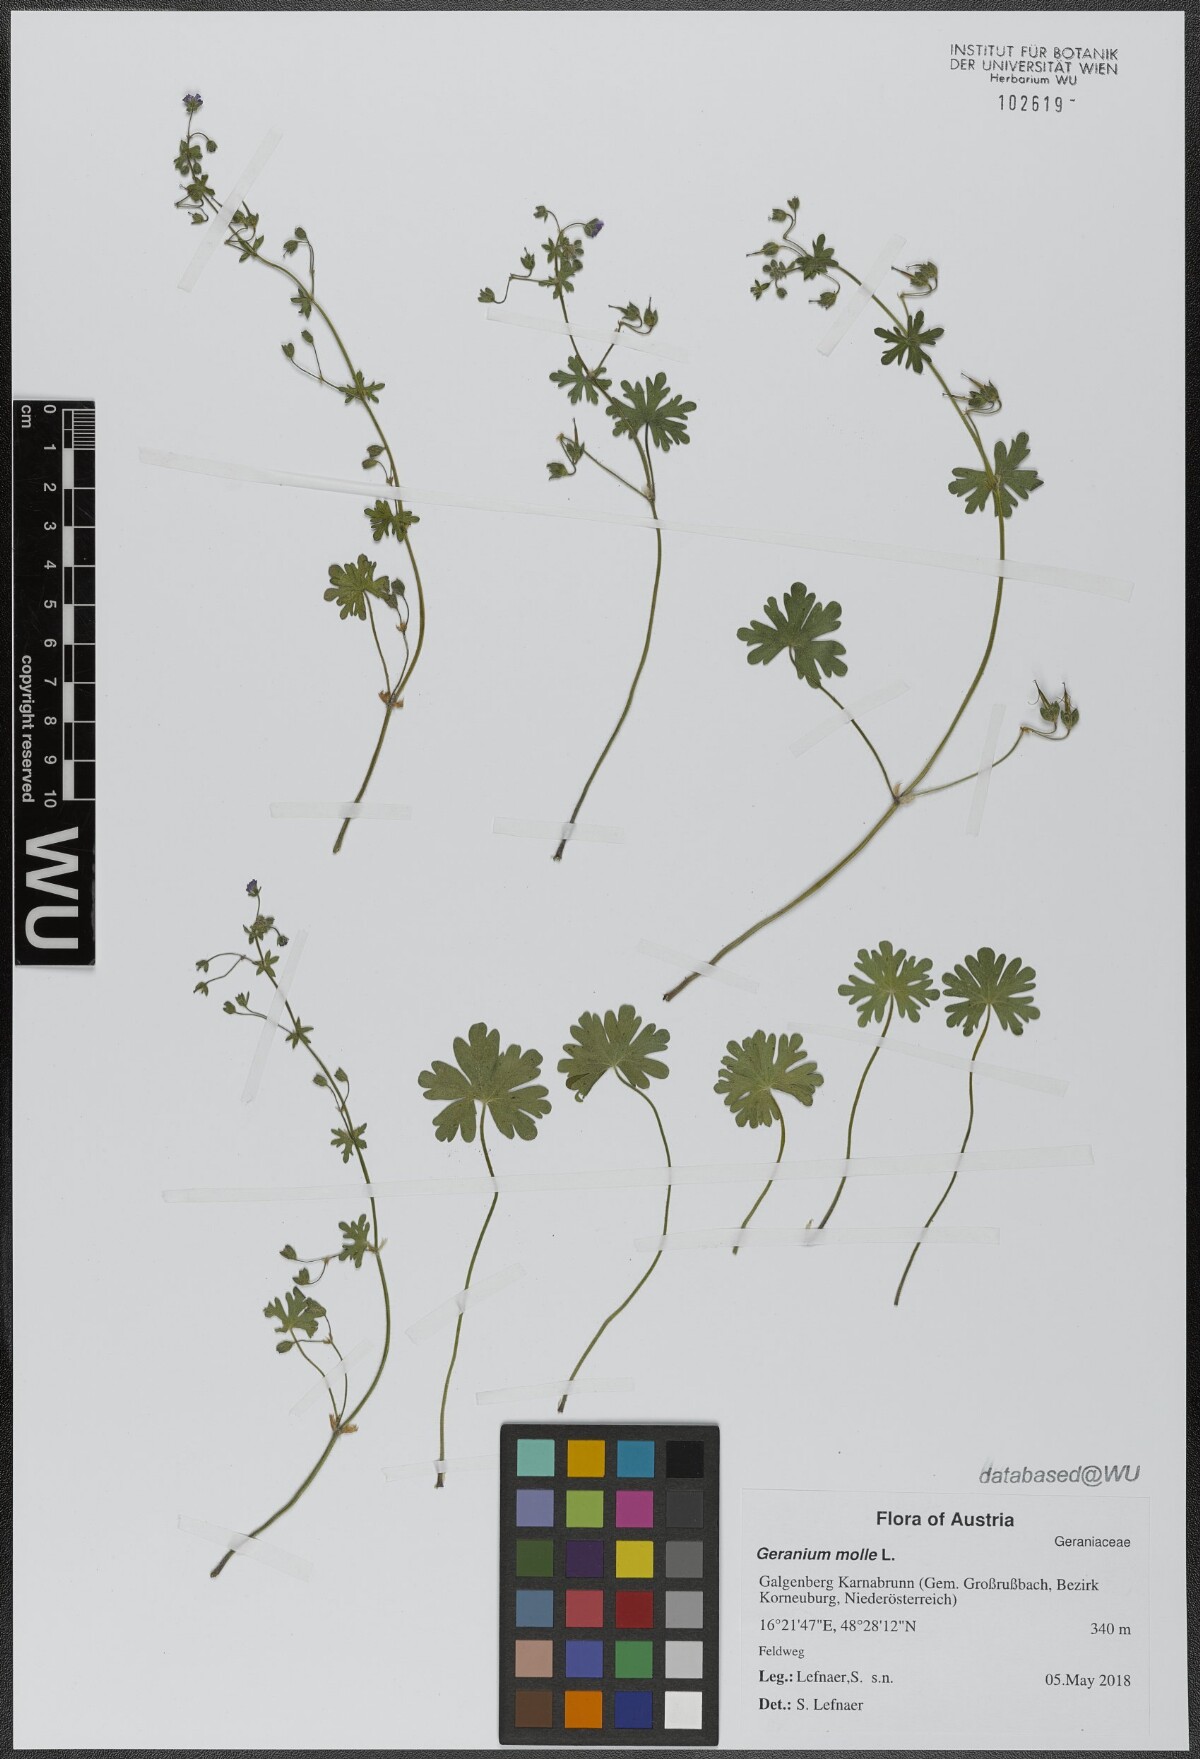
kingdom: Plantae
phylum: Tracheophyta
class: Magnoliopsida
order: Geraniales
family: Geraniaceae
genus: Geranium
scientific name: Geranium molle
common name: Dove's-foot crane's-bill
